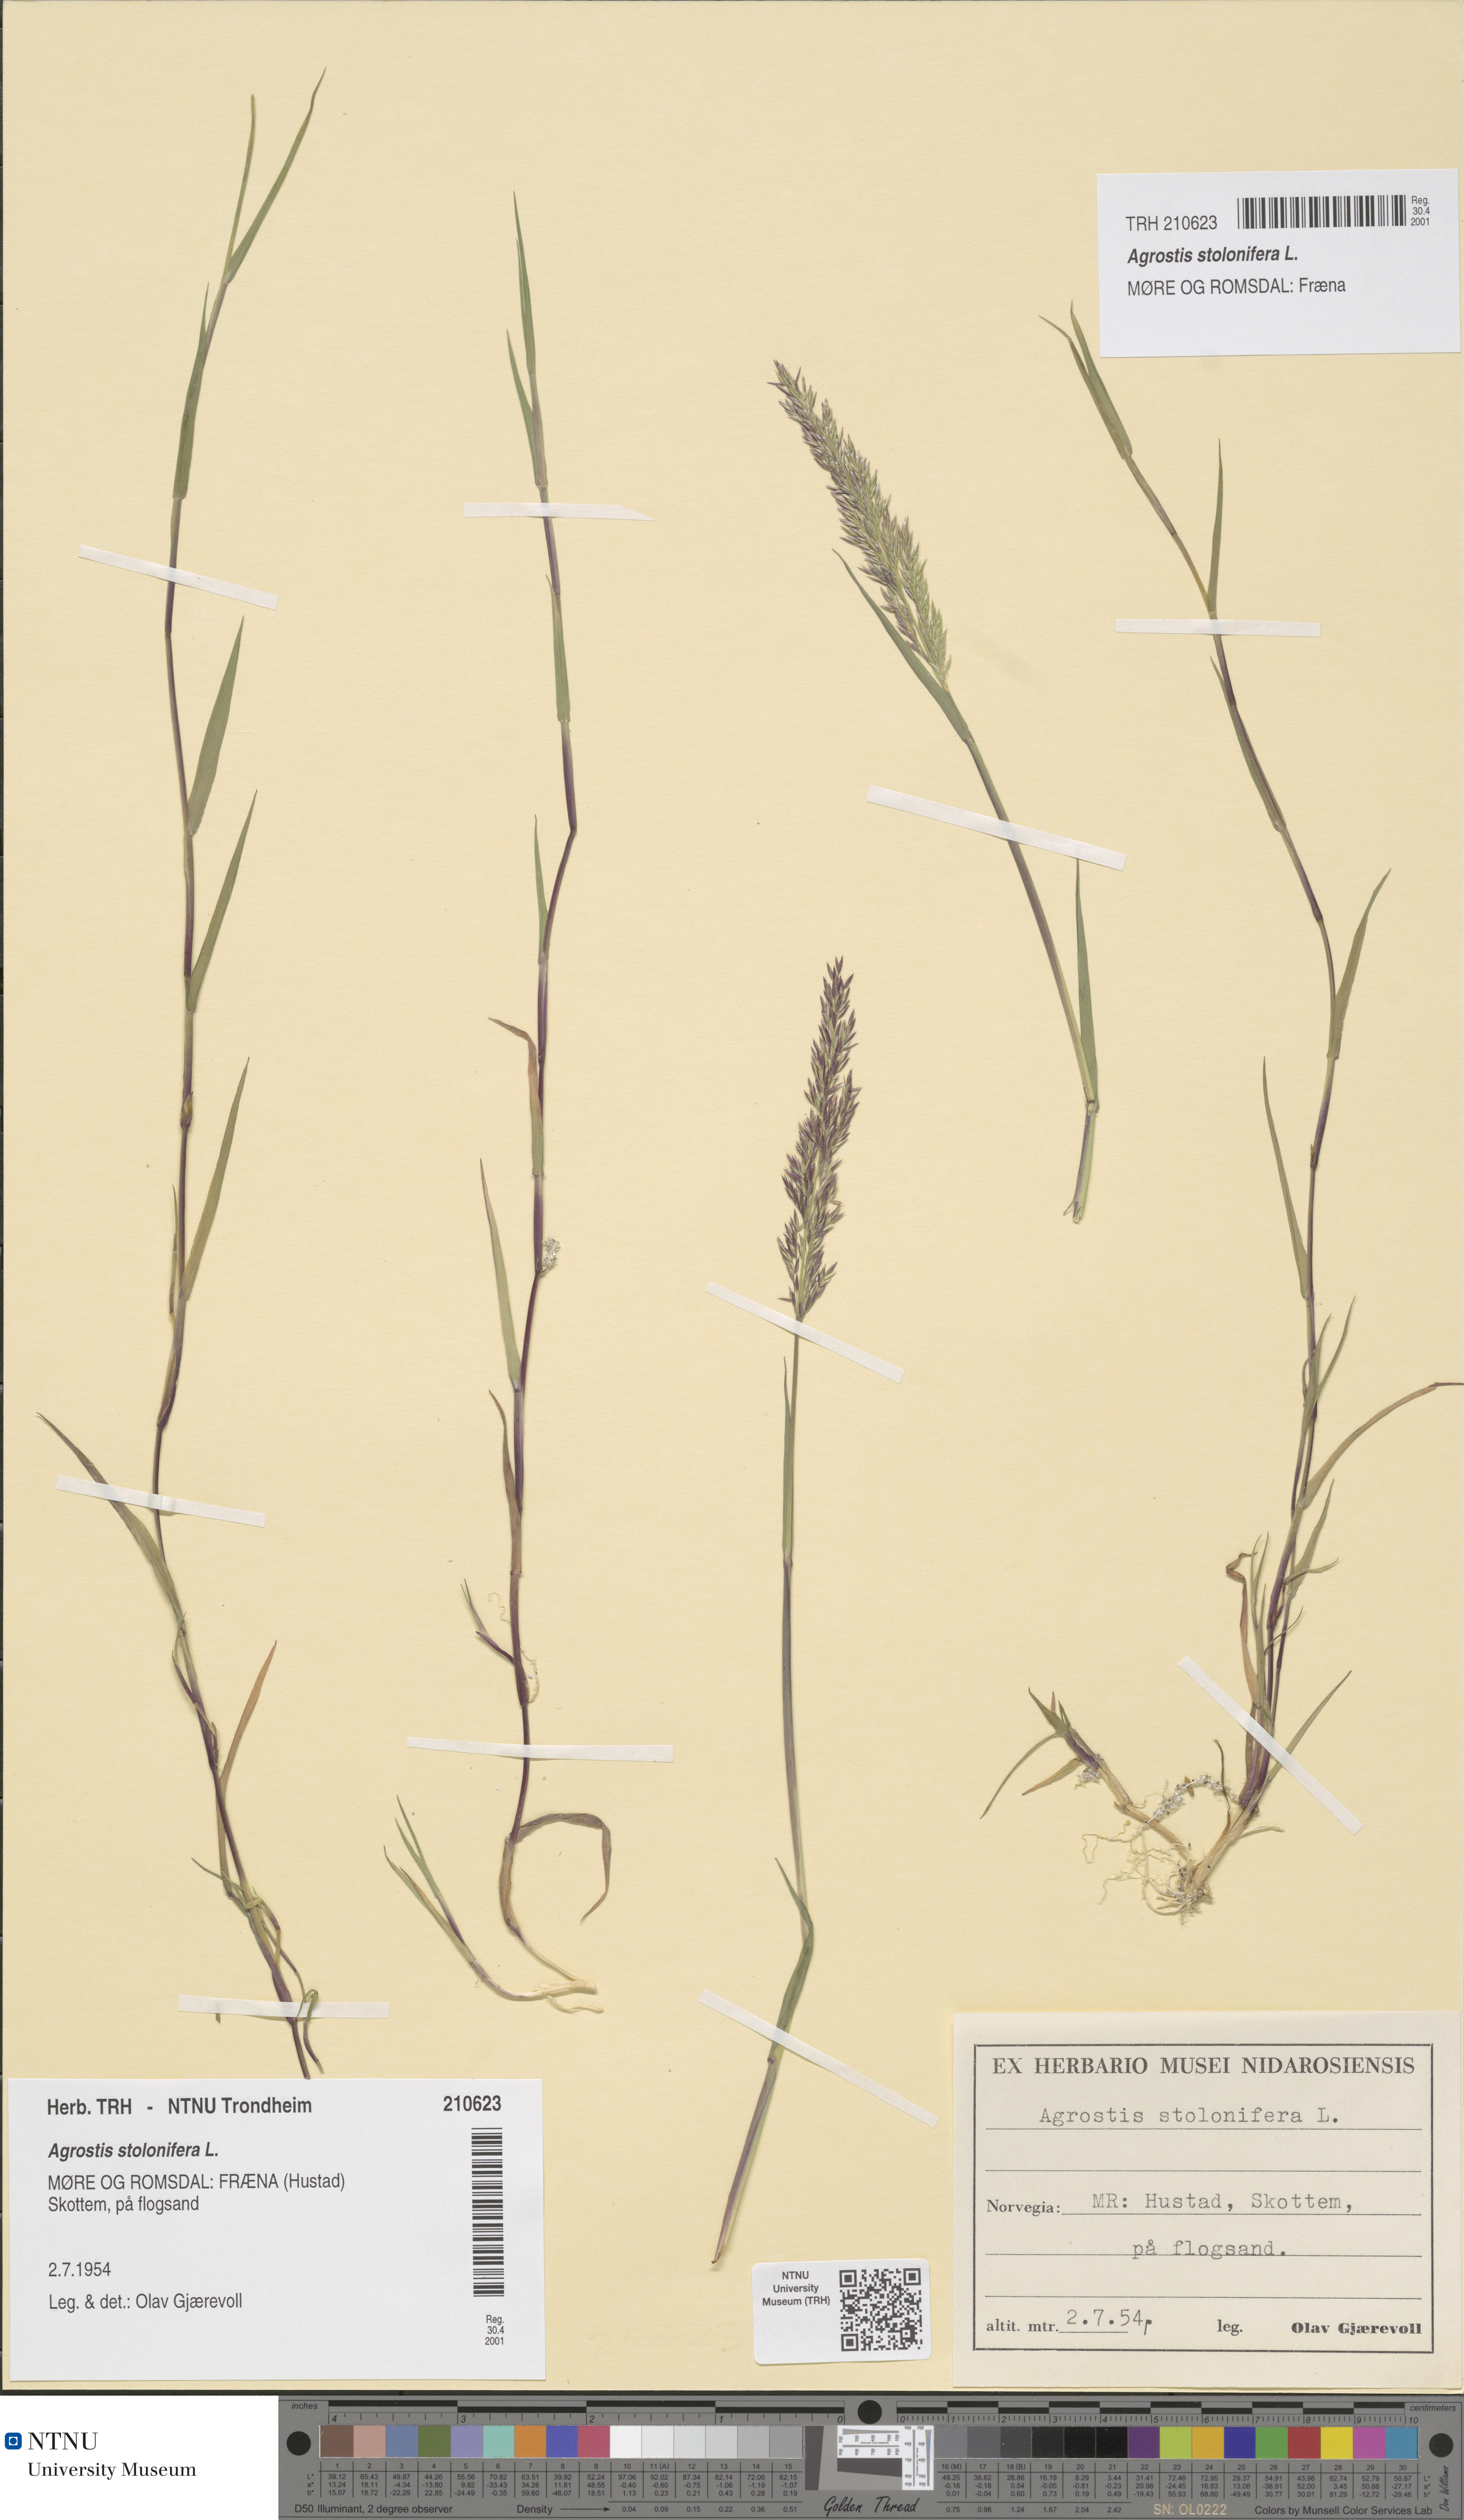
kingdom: Plantae
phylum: Tracheophyta
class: Liliopsida
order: Poales
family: Poaceae
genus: Agrostis
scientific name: Agrostis stolonifera
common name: Creeping bentgrass
